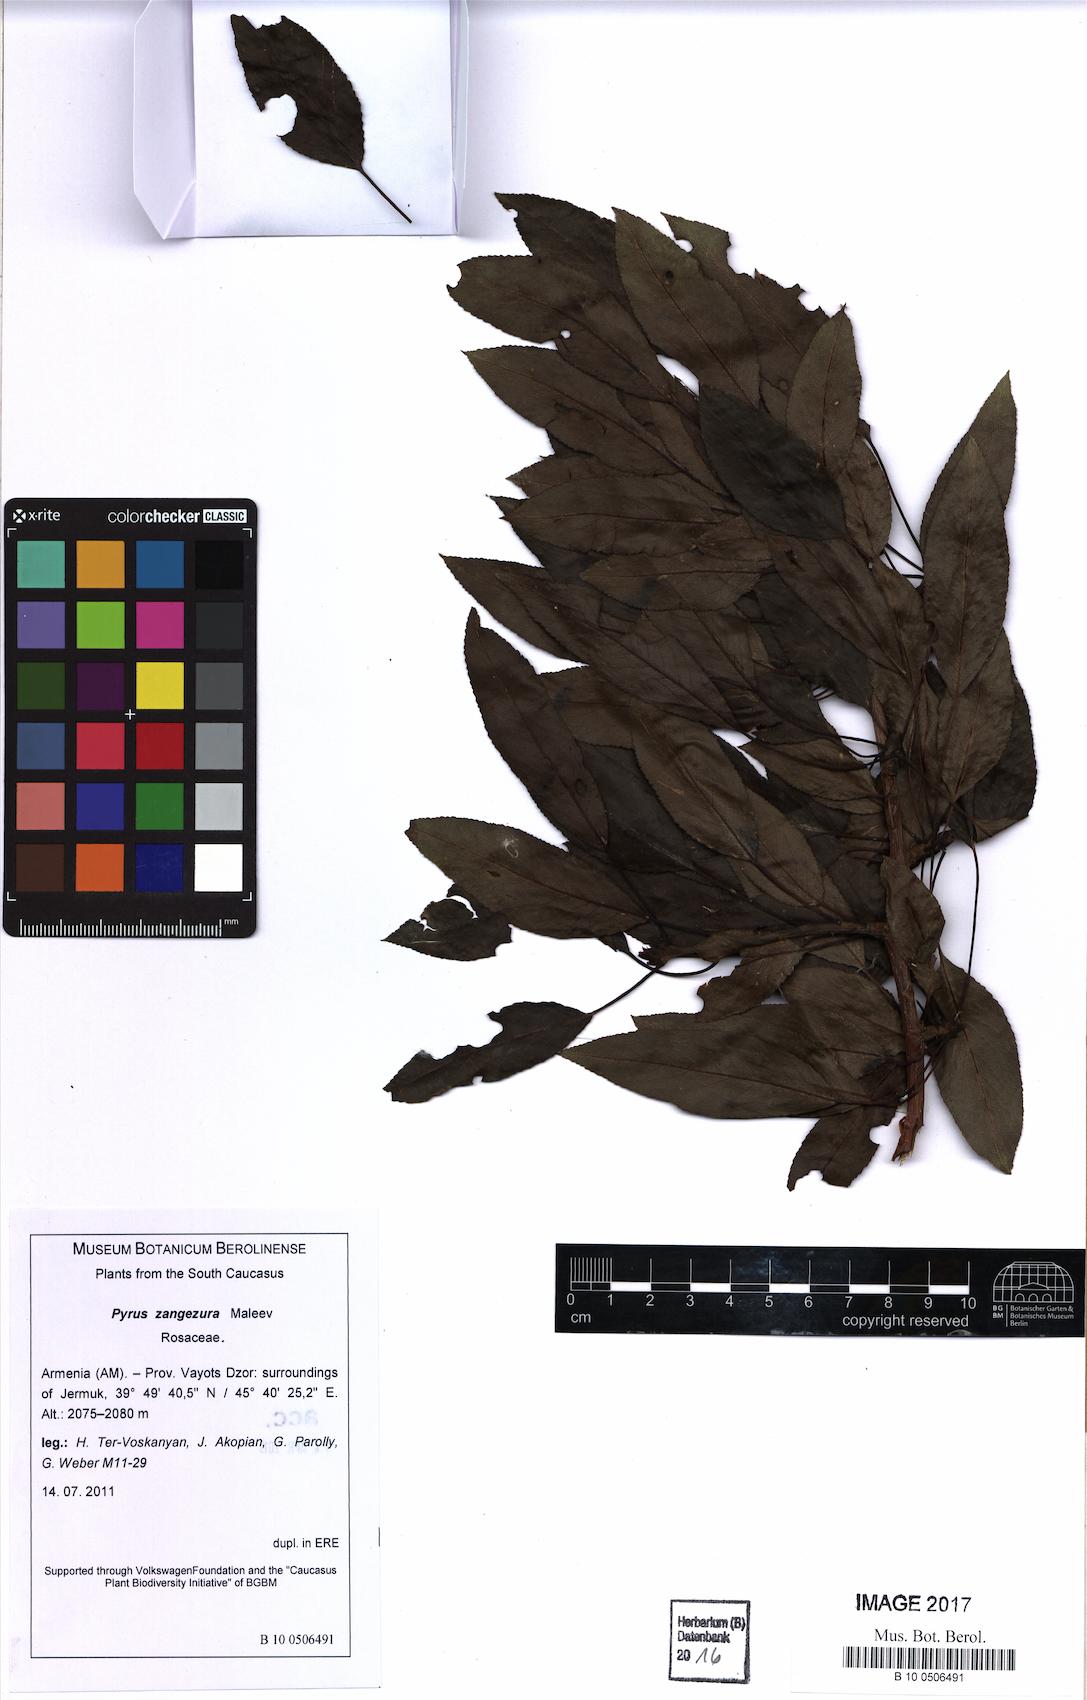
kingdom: Plantae
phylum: Tracheophyta
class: Magnoliopsida
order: Rosales
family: Rosaceae
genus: Pyrus
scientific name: Pyrus zangezura
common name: Zangezurian pear
